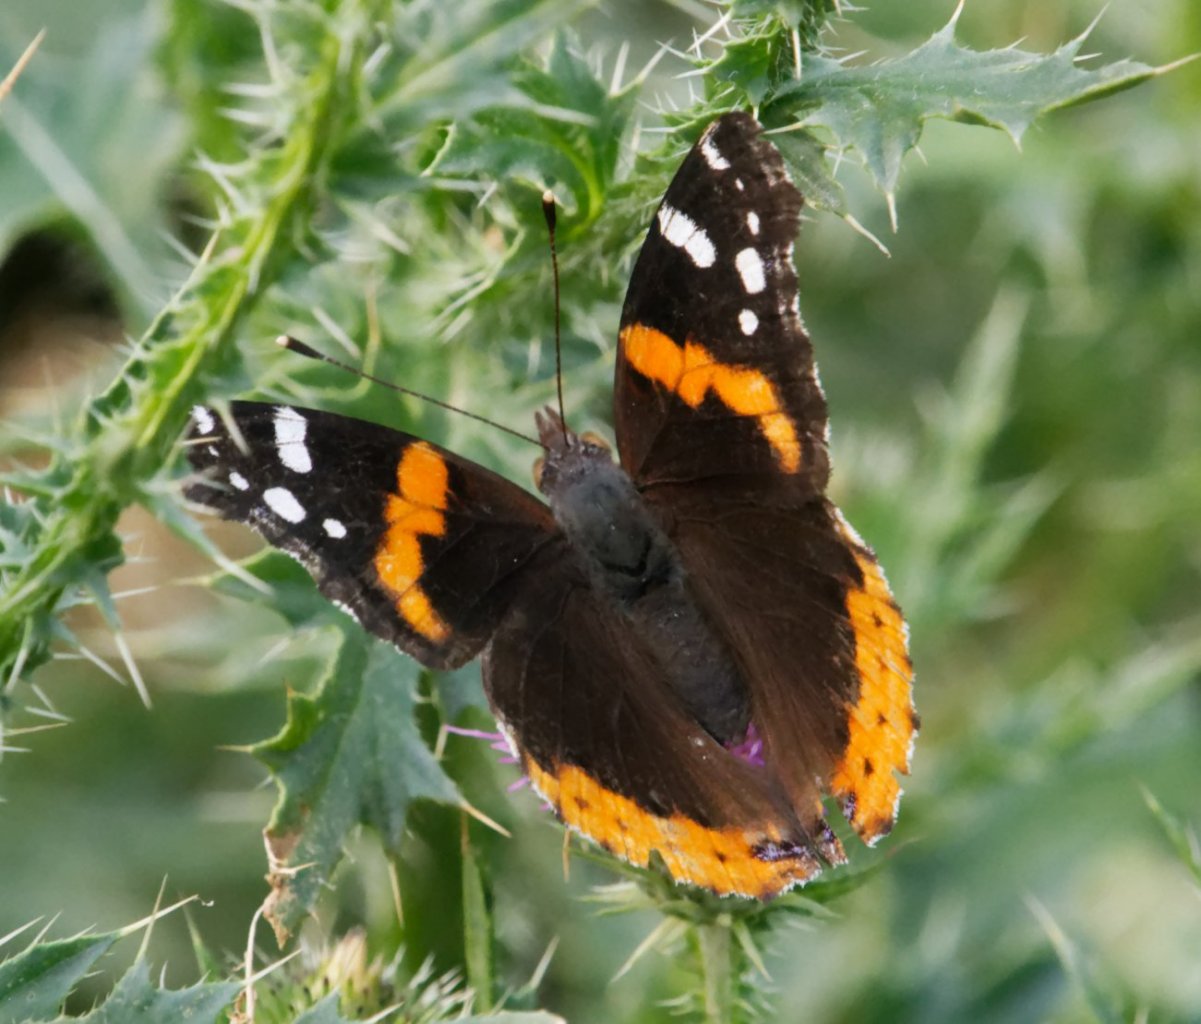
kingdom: Animalia
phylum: Arthropoda
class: Insecta
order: Lepidoptera
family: Nymphalidae
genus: Vanessa
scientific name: Vanessa atalanta
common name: Red Admiral
